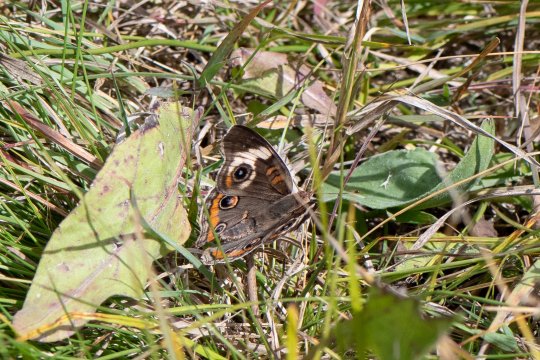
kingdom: Animalia
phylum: Arthropoda
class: Insecta
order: Lepidoptera
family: Nymphalidae
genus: Junonia
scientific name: Junonia coenia
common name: Common Buckeye
